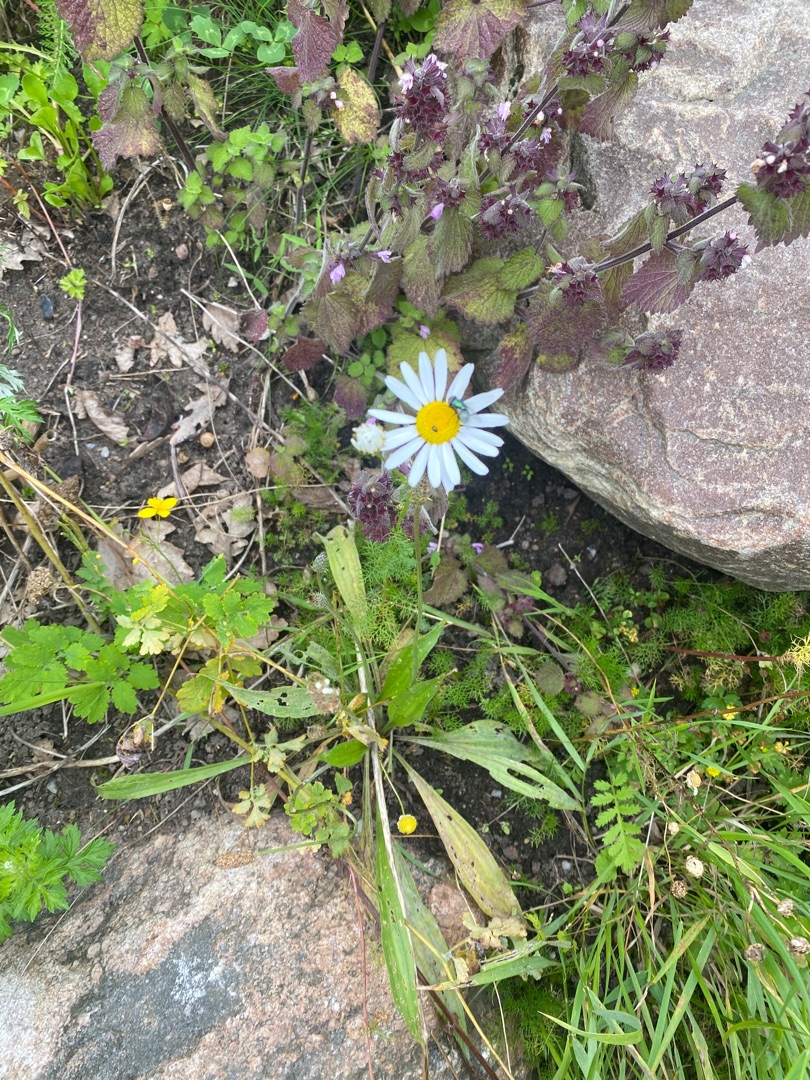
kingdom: Plantae
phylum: Tracheophyta
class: Magnoliopsida
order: Asterales
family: Asteraceae
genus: Tripleurospermum
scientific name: Tripleurospermum inodorum
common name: Lugtløs kamille
